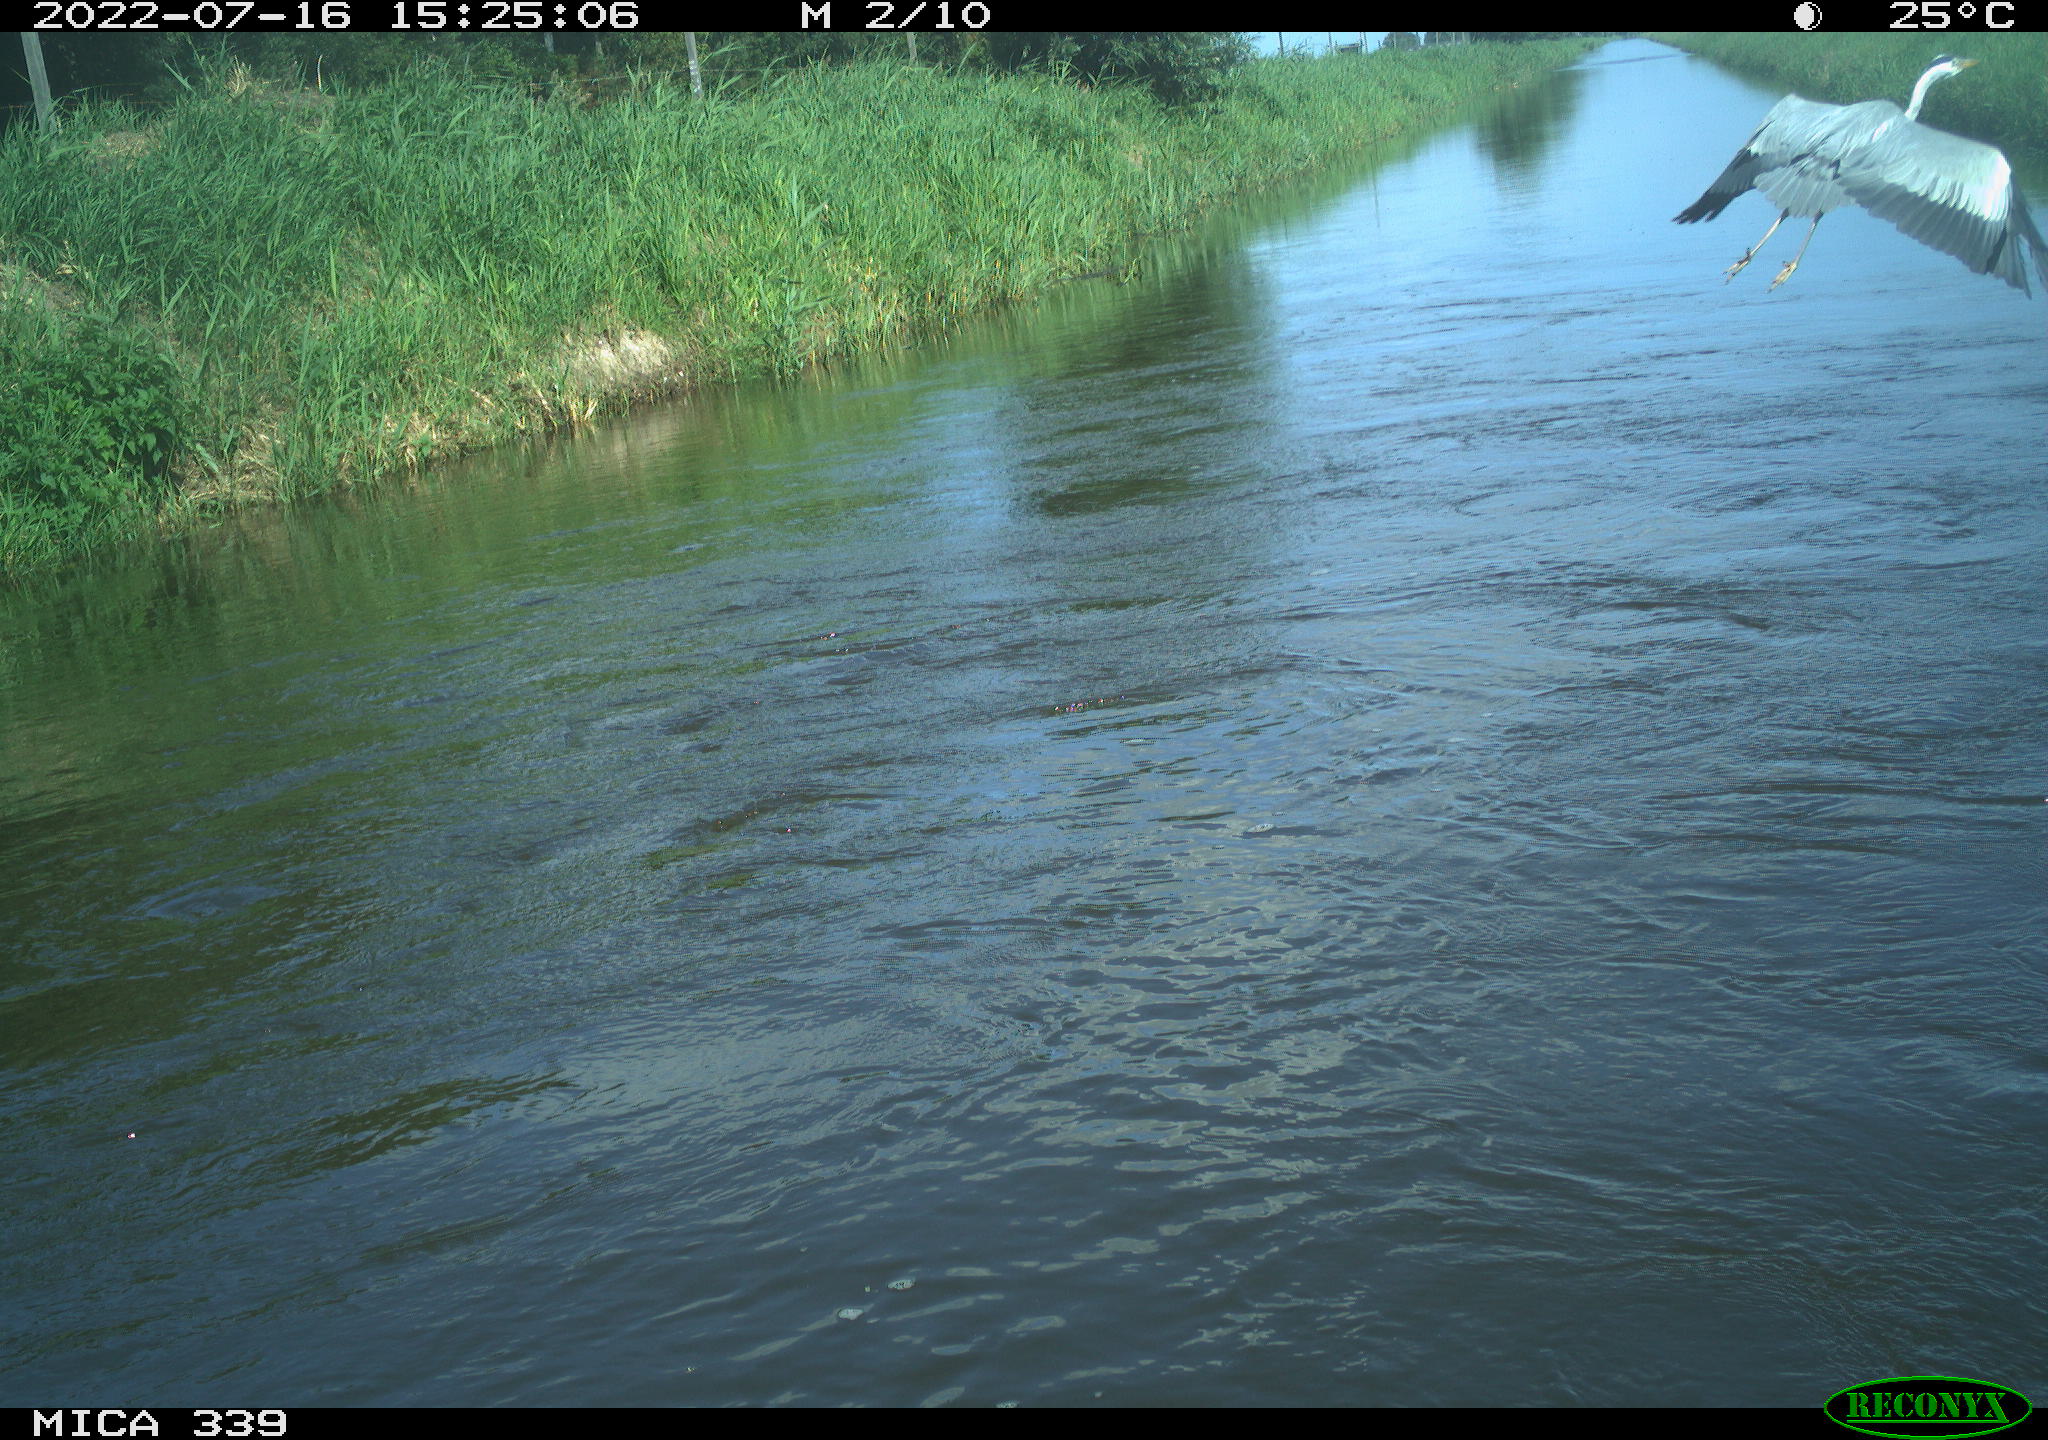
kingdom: Animalia
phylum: Chordata
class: Aves
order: Pelecaniformes
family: Ardeidae
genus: Ardea
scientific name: Ardea
